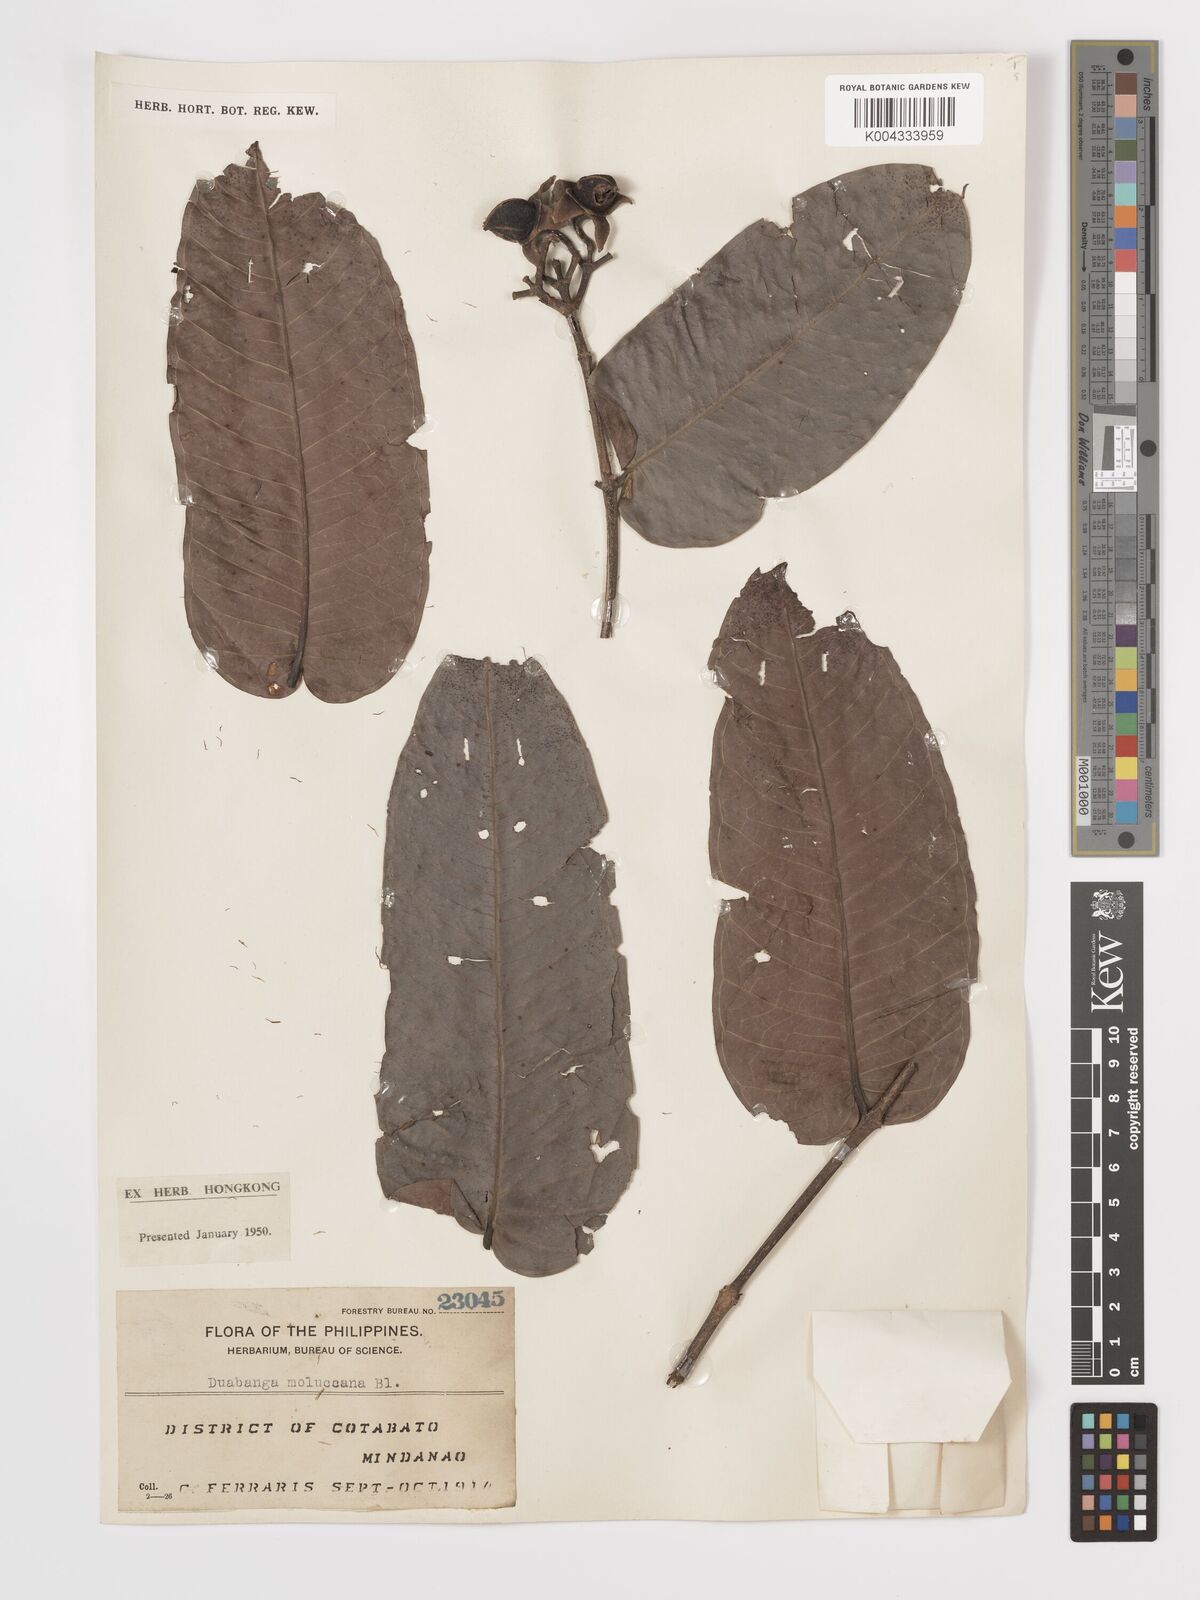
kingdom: Plantae
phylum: Tracheophyta
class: Magnoliopsida
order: Myrtales
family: Lythraceae
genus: Duabanga
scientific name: Duabanga moluccana
